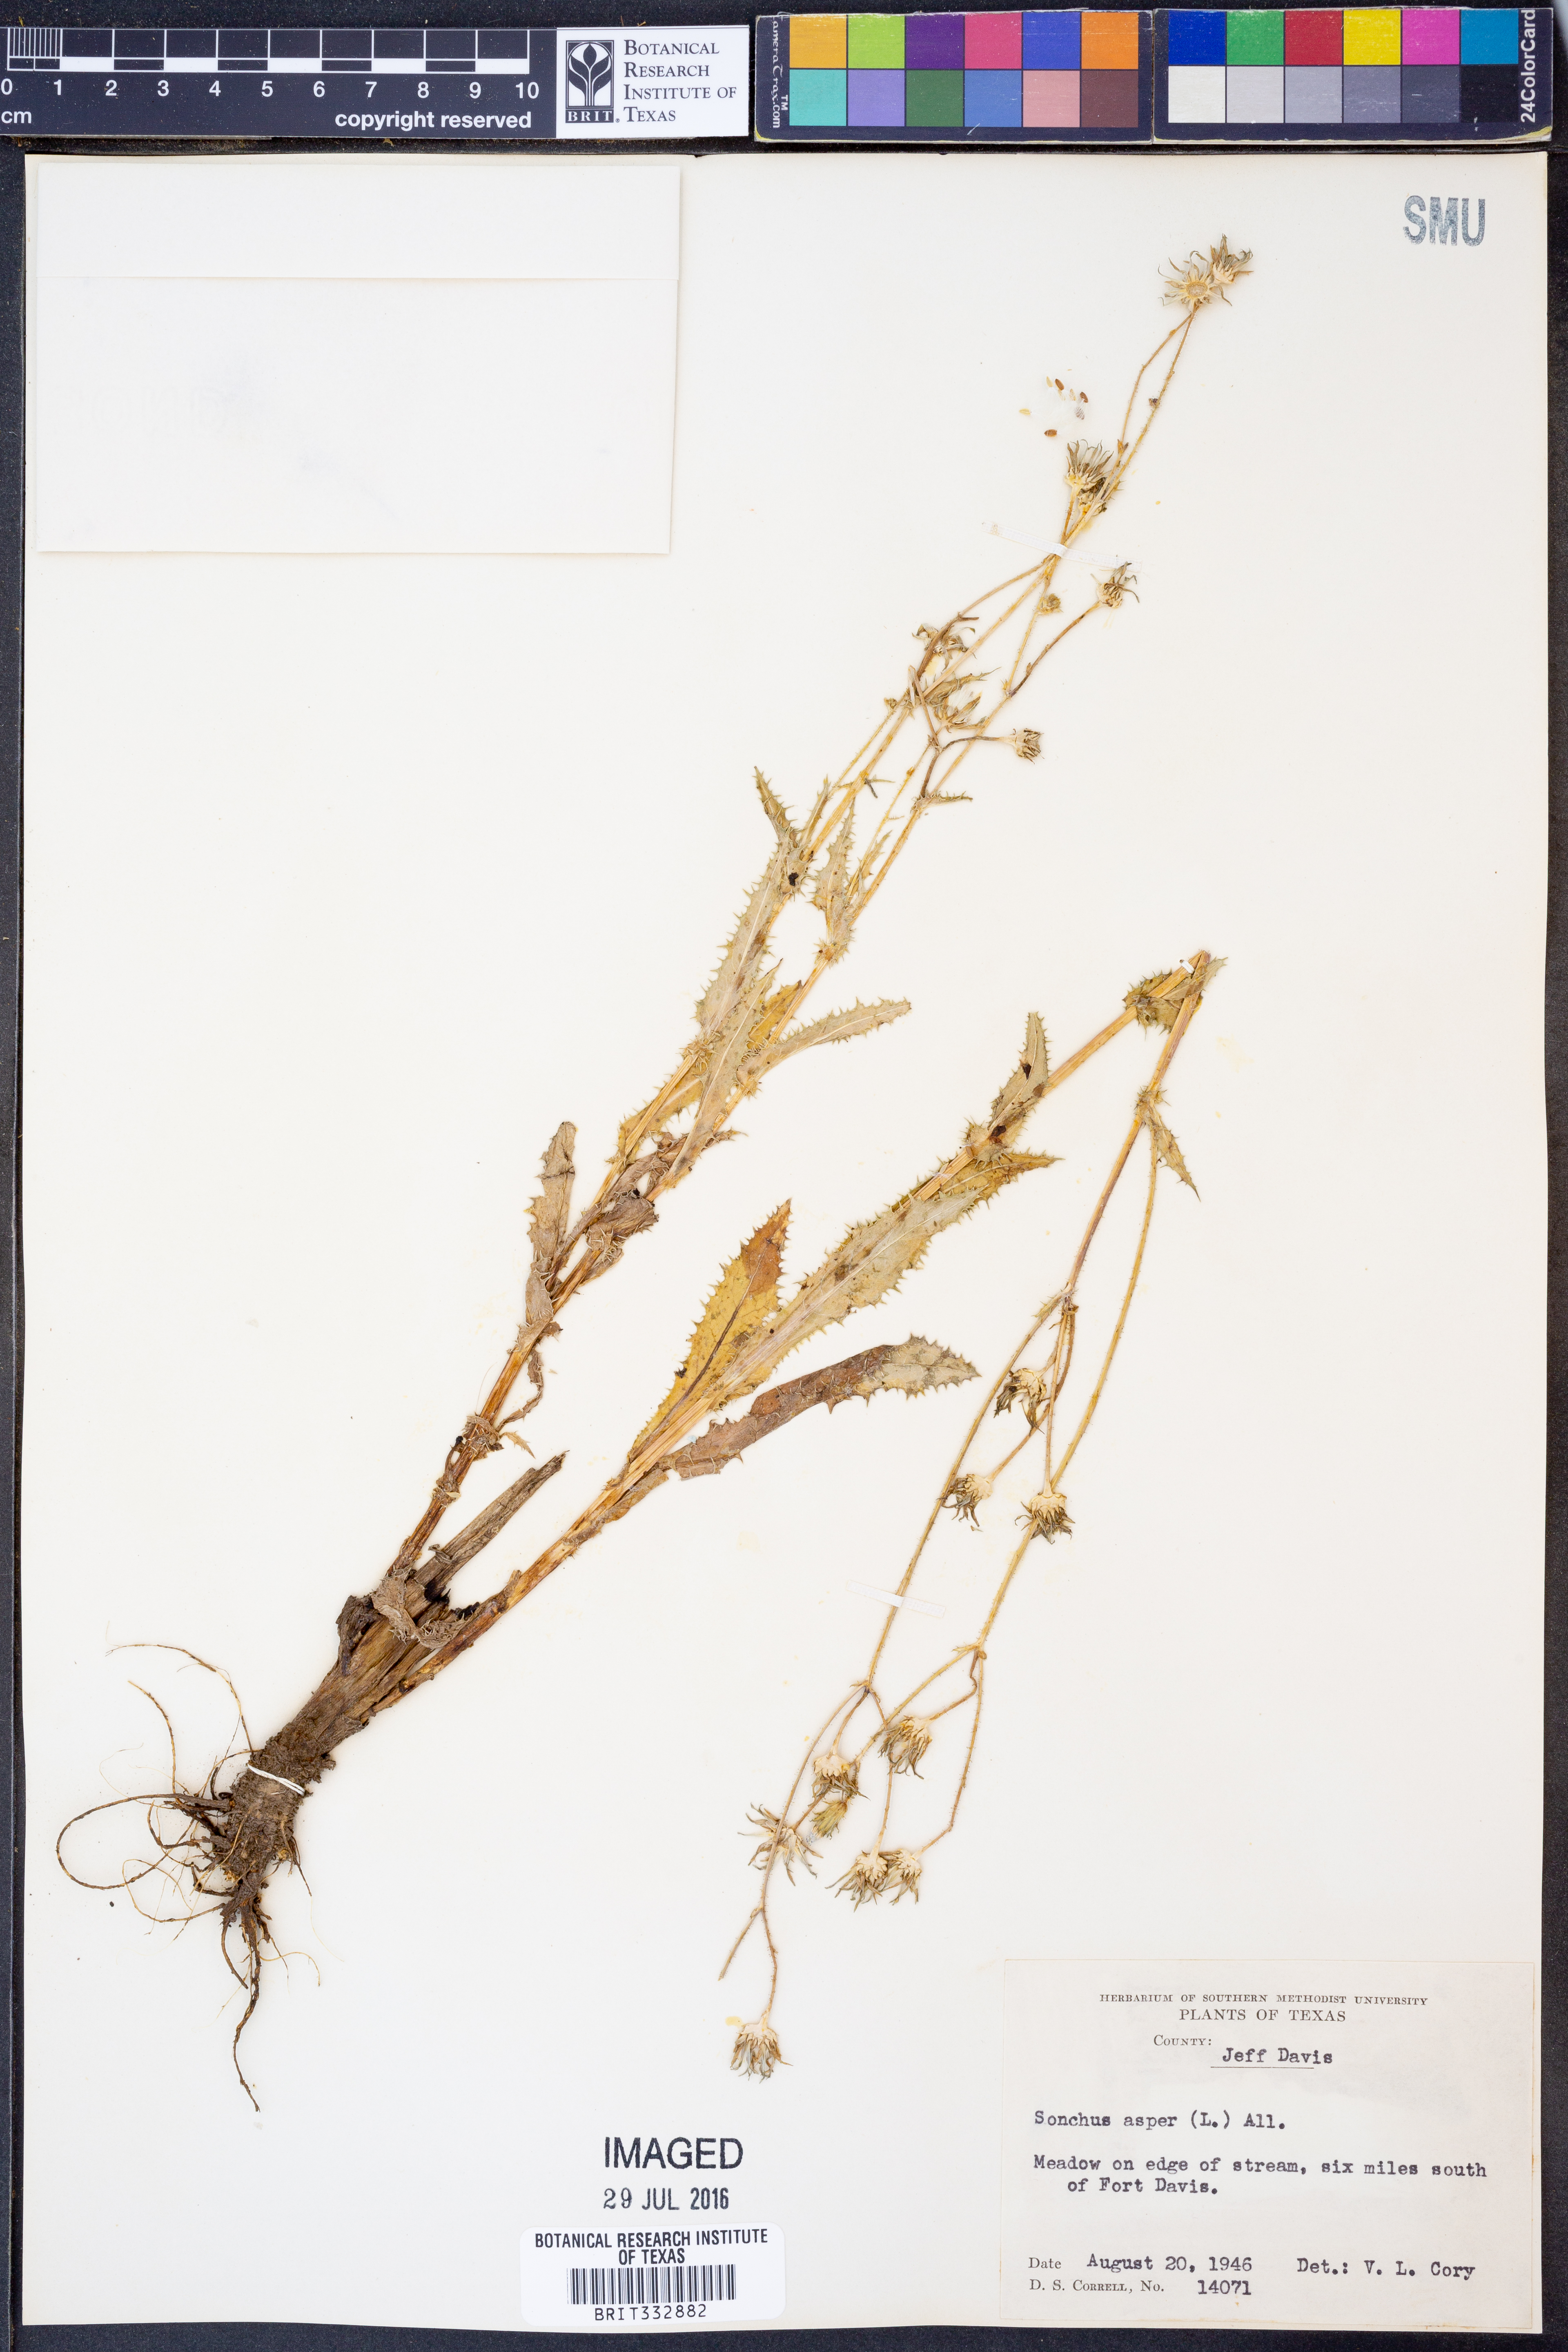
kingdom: Plantae
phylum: Tracheophyta
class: Magnoliopsida
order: Asterales
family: Asteraceae
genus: Sonchus
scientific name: Sonchus asper
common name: Prickly sow-thistle
